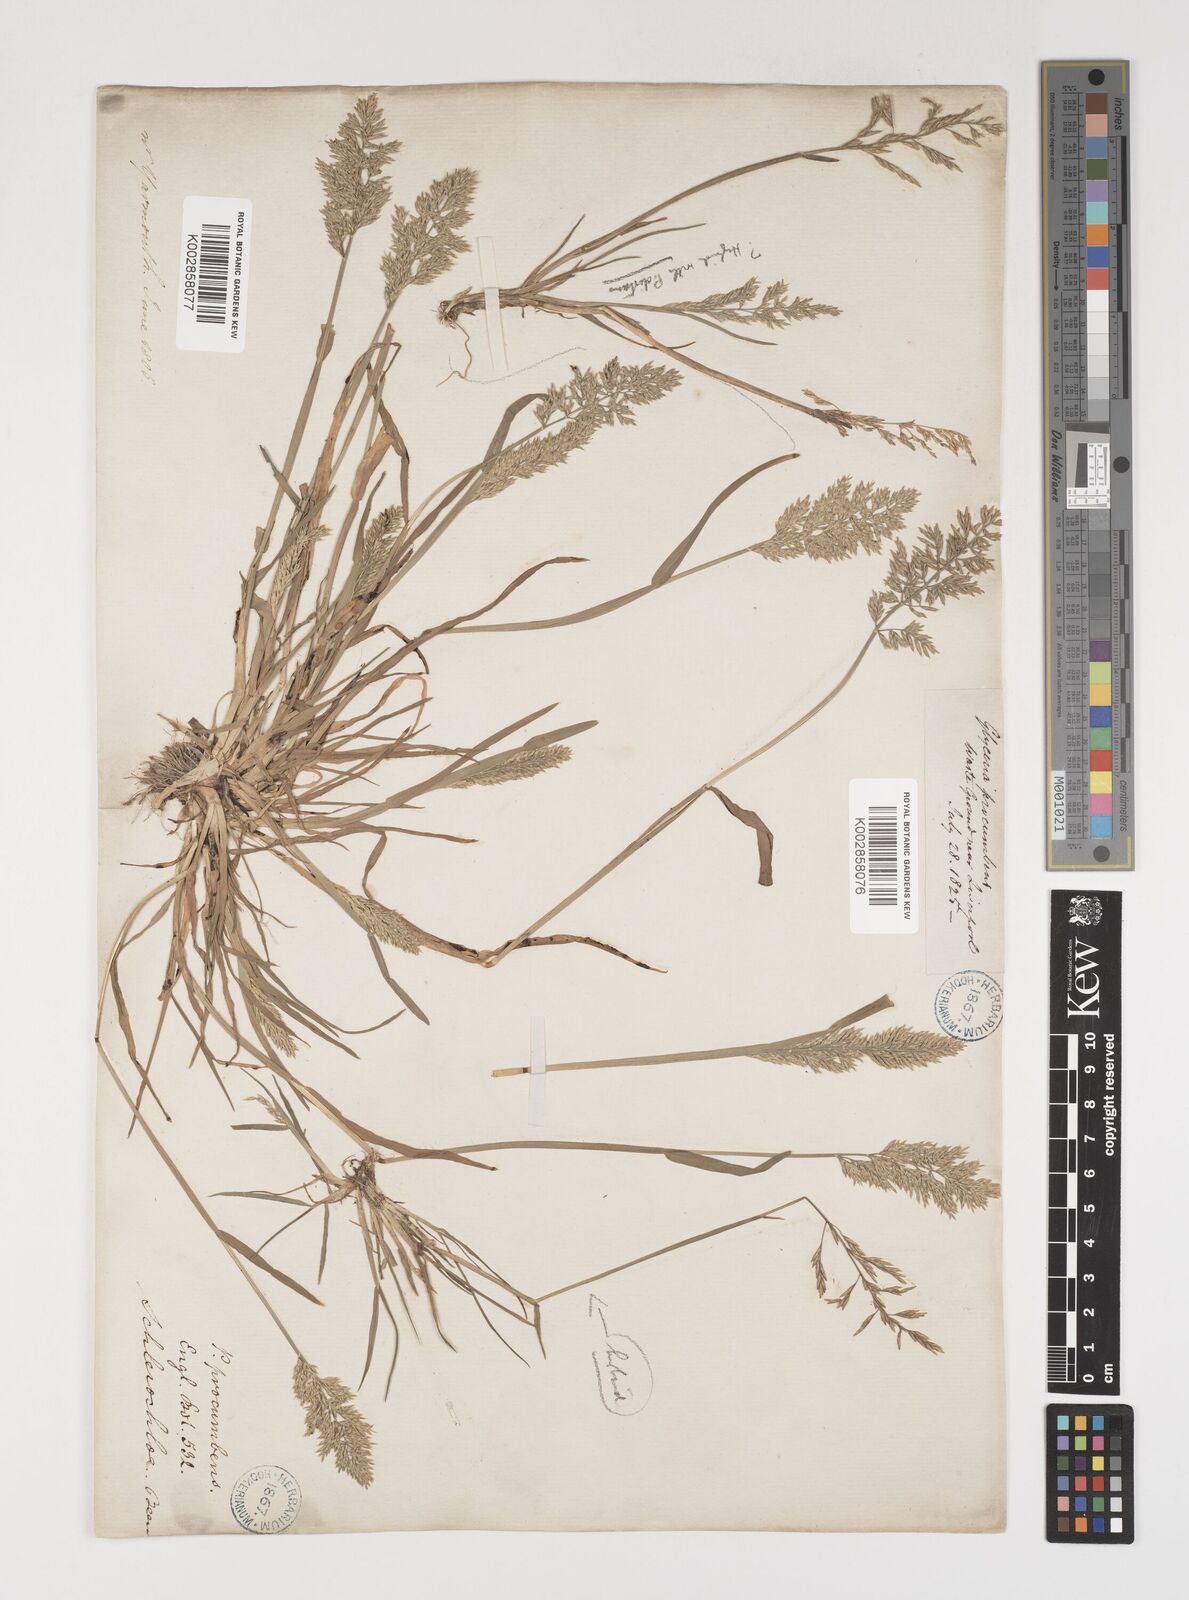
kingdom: Plantae
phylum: Tracheophyta
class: Liliopsida
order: Poales
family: Poaceae
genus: Puccinellia
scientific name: Puccinellia rupestris
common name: Stiff saltmarsh-grass
